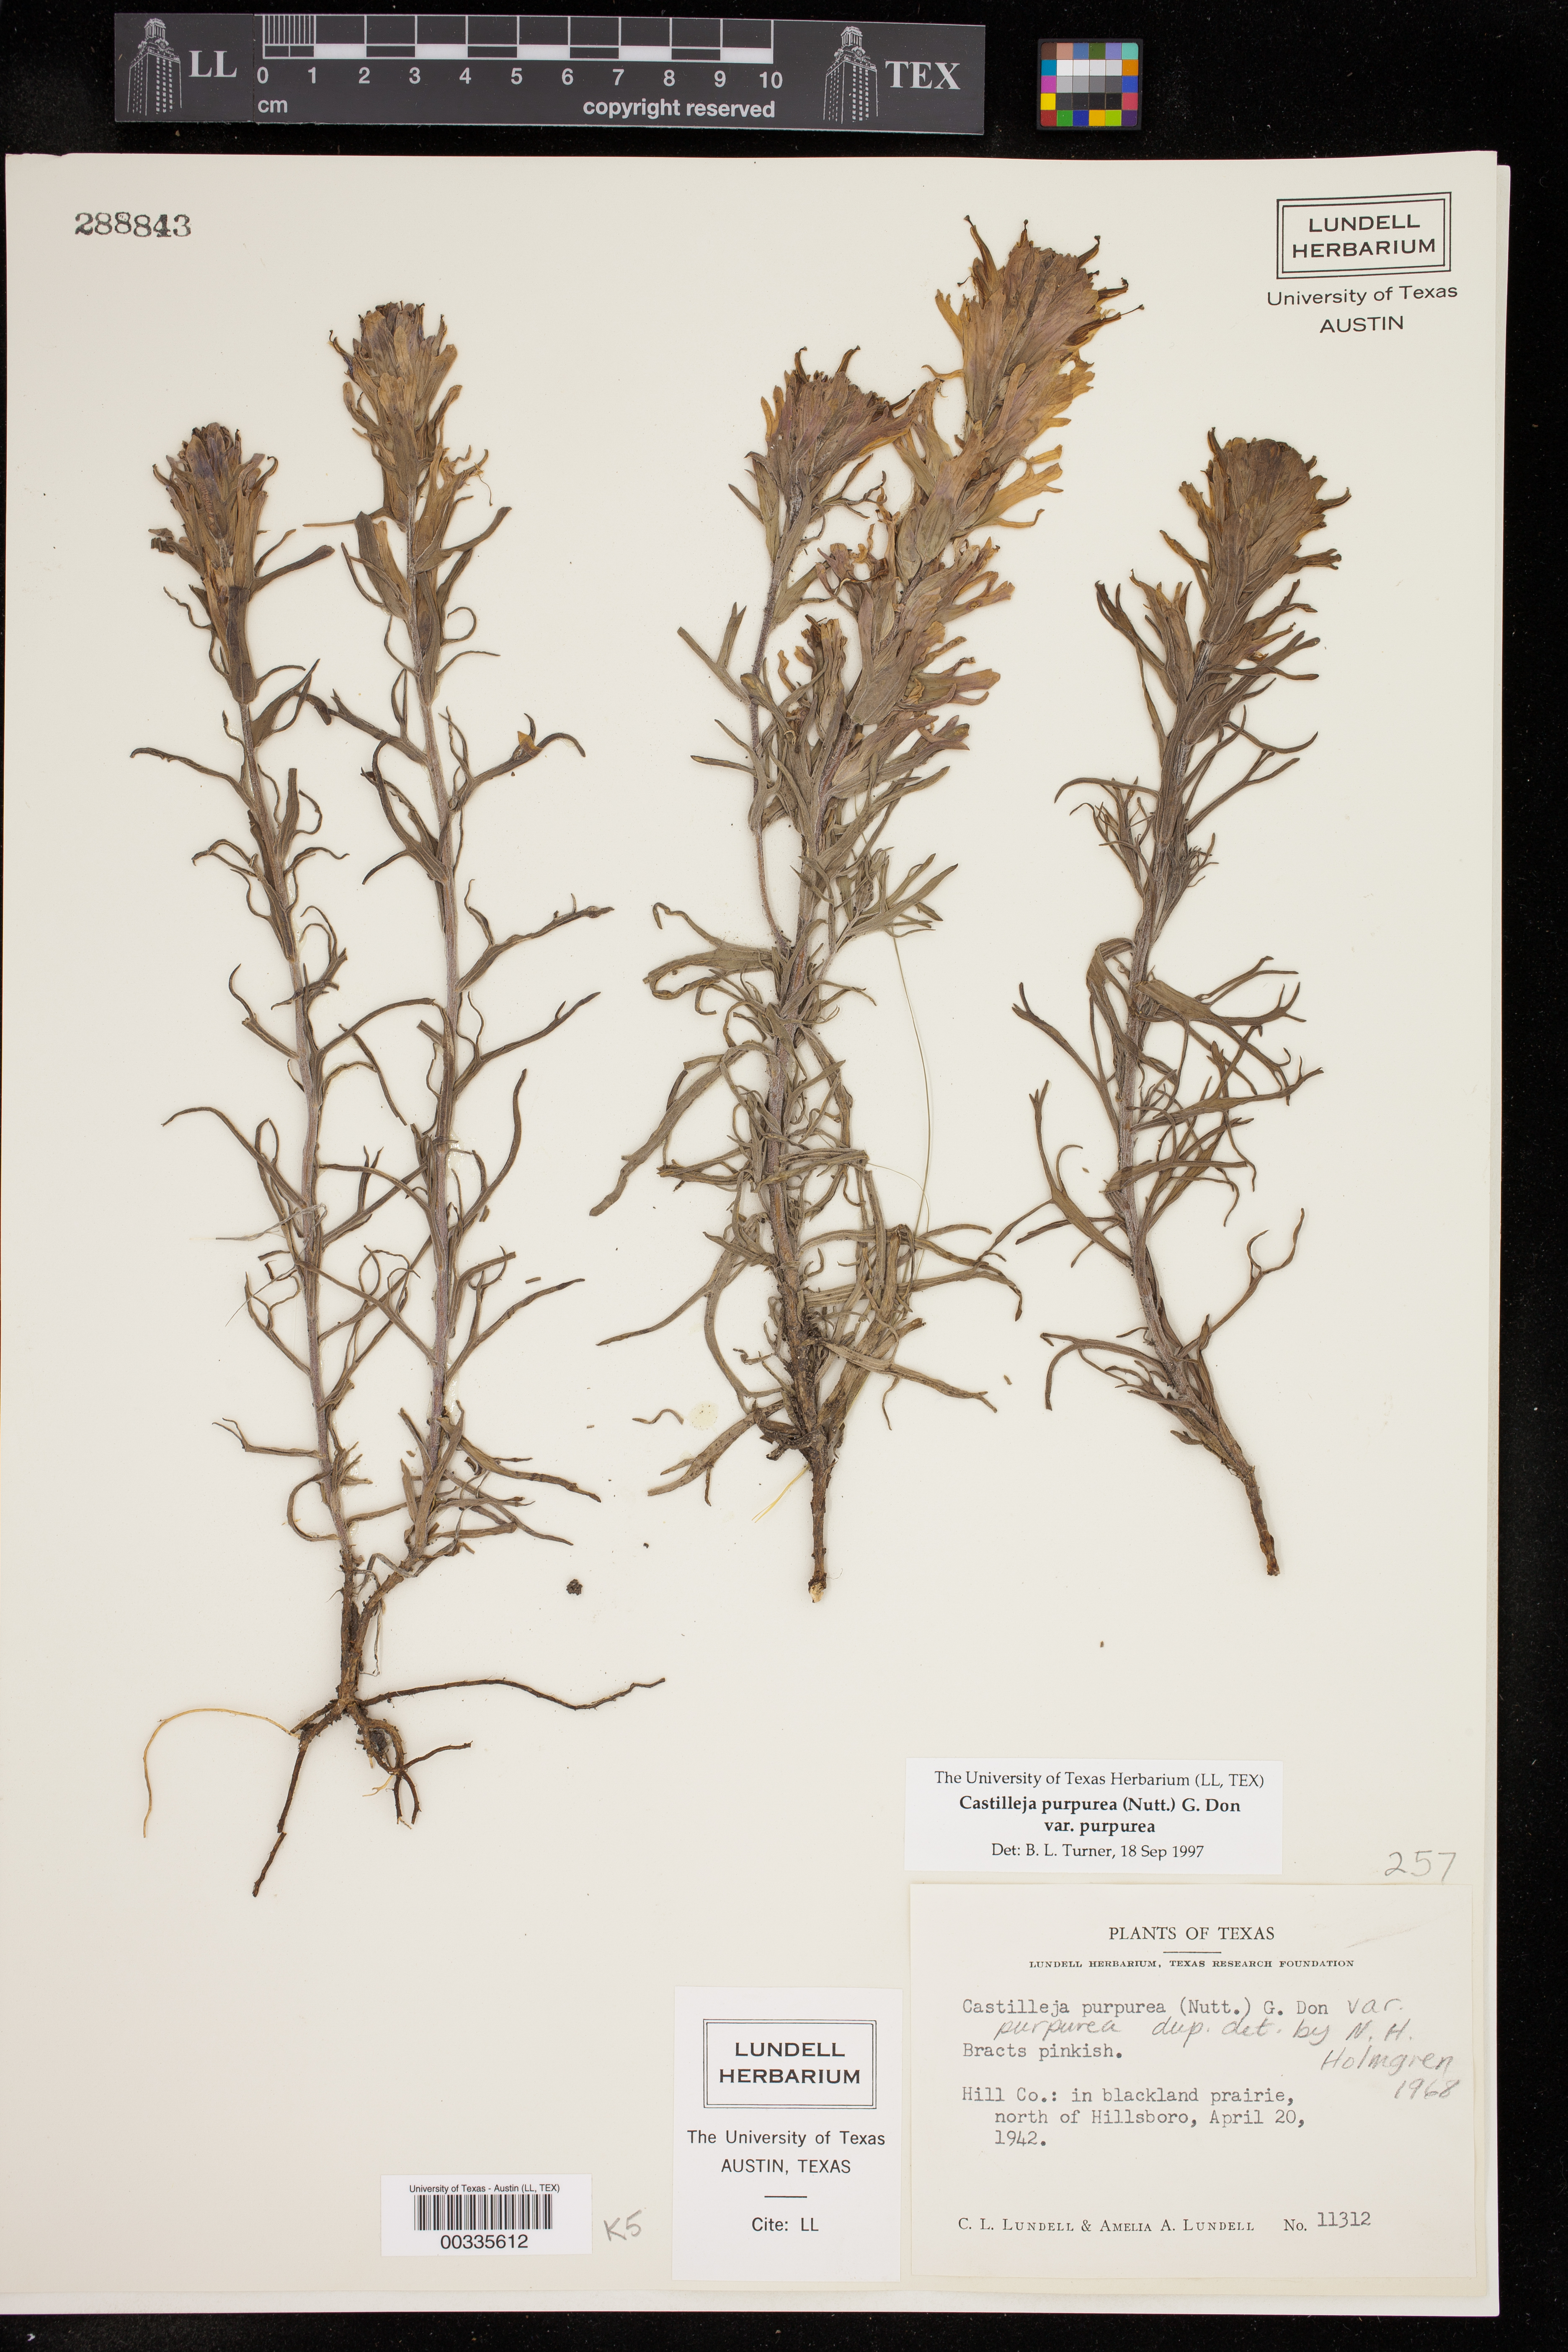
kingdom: Plantae
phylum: Tracheophyta
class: Magnoliopsida
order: Lamiales
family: Orobanchaceae
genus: Castilleja
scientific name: Castilleja purpurea
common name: Plains paintbrush
